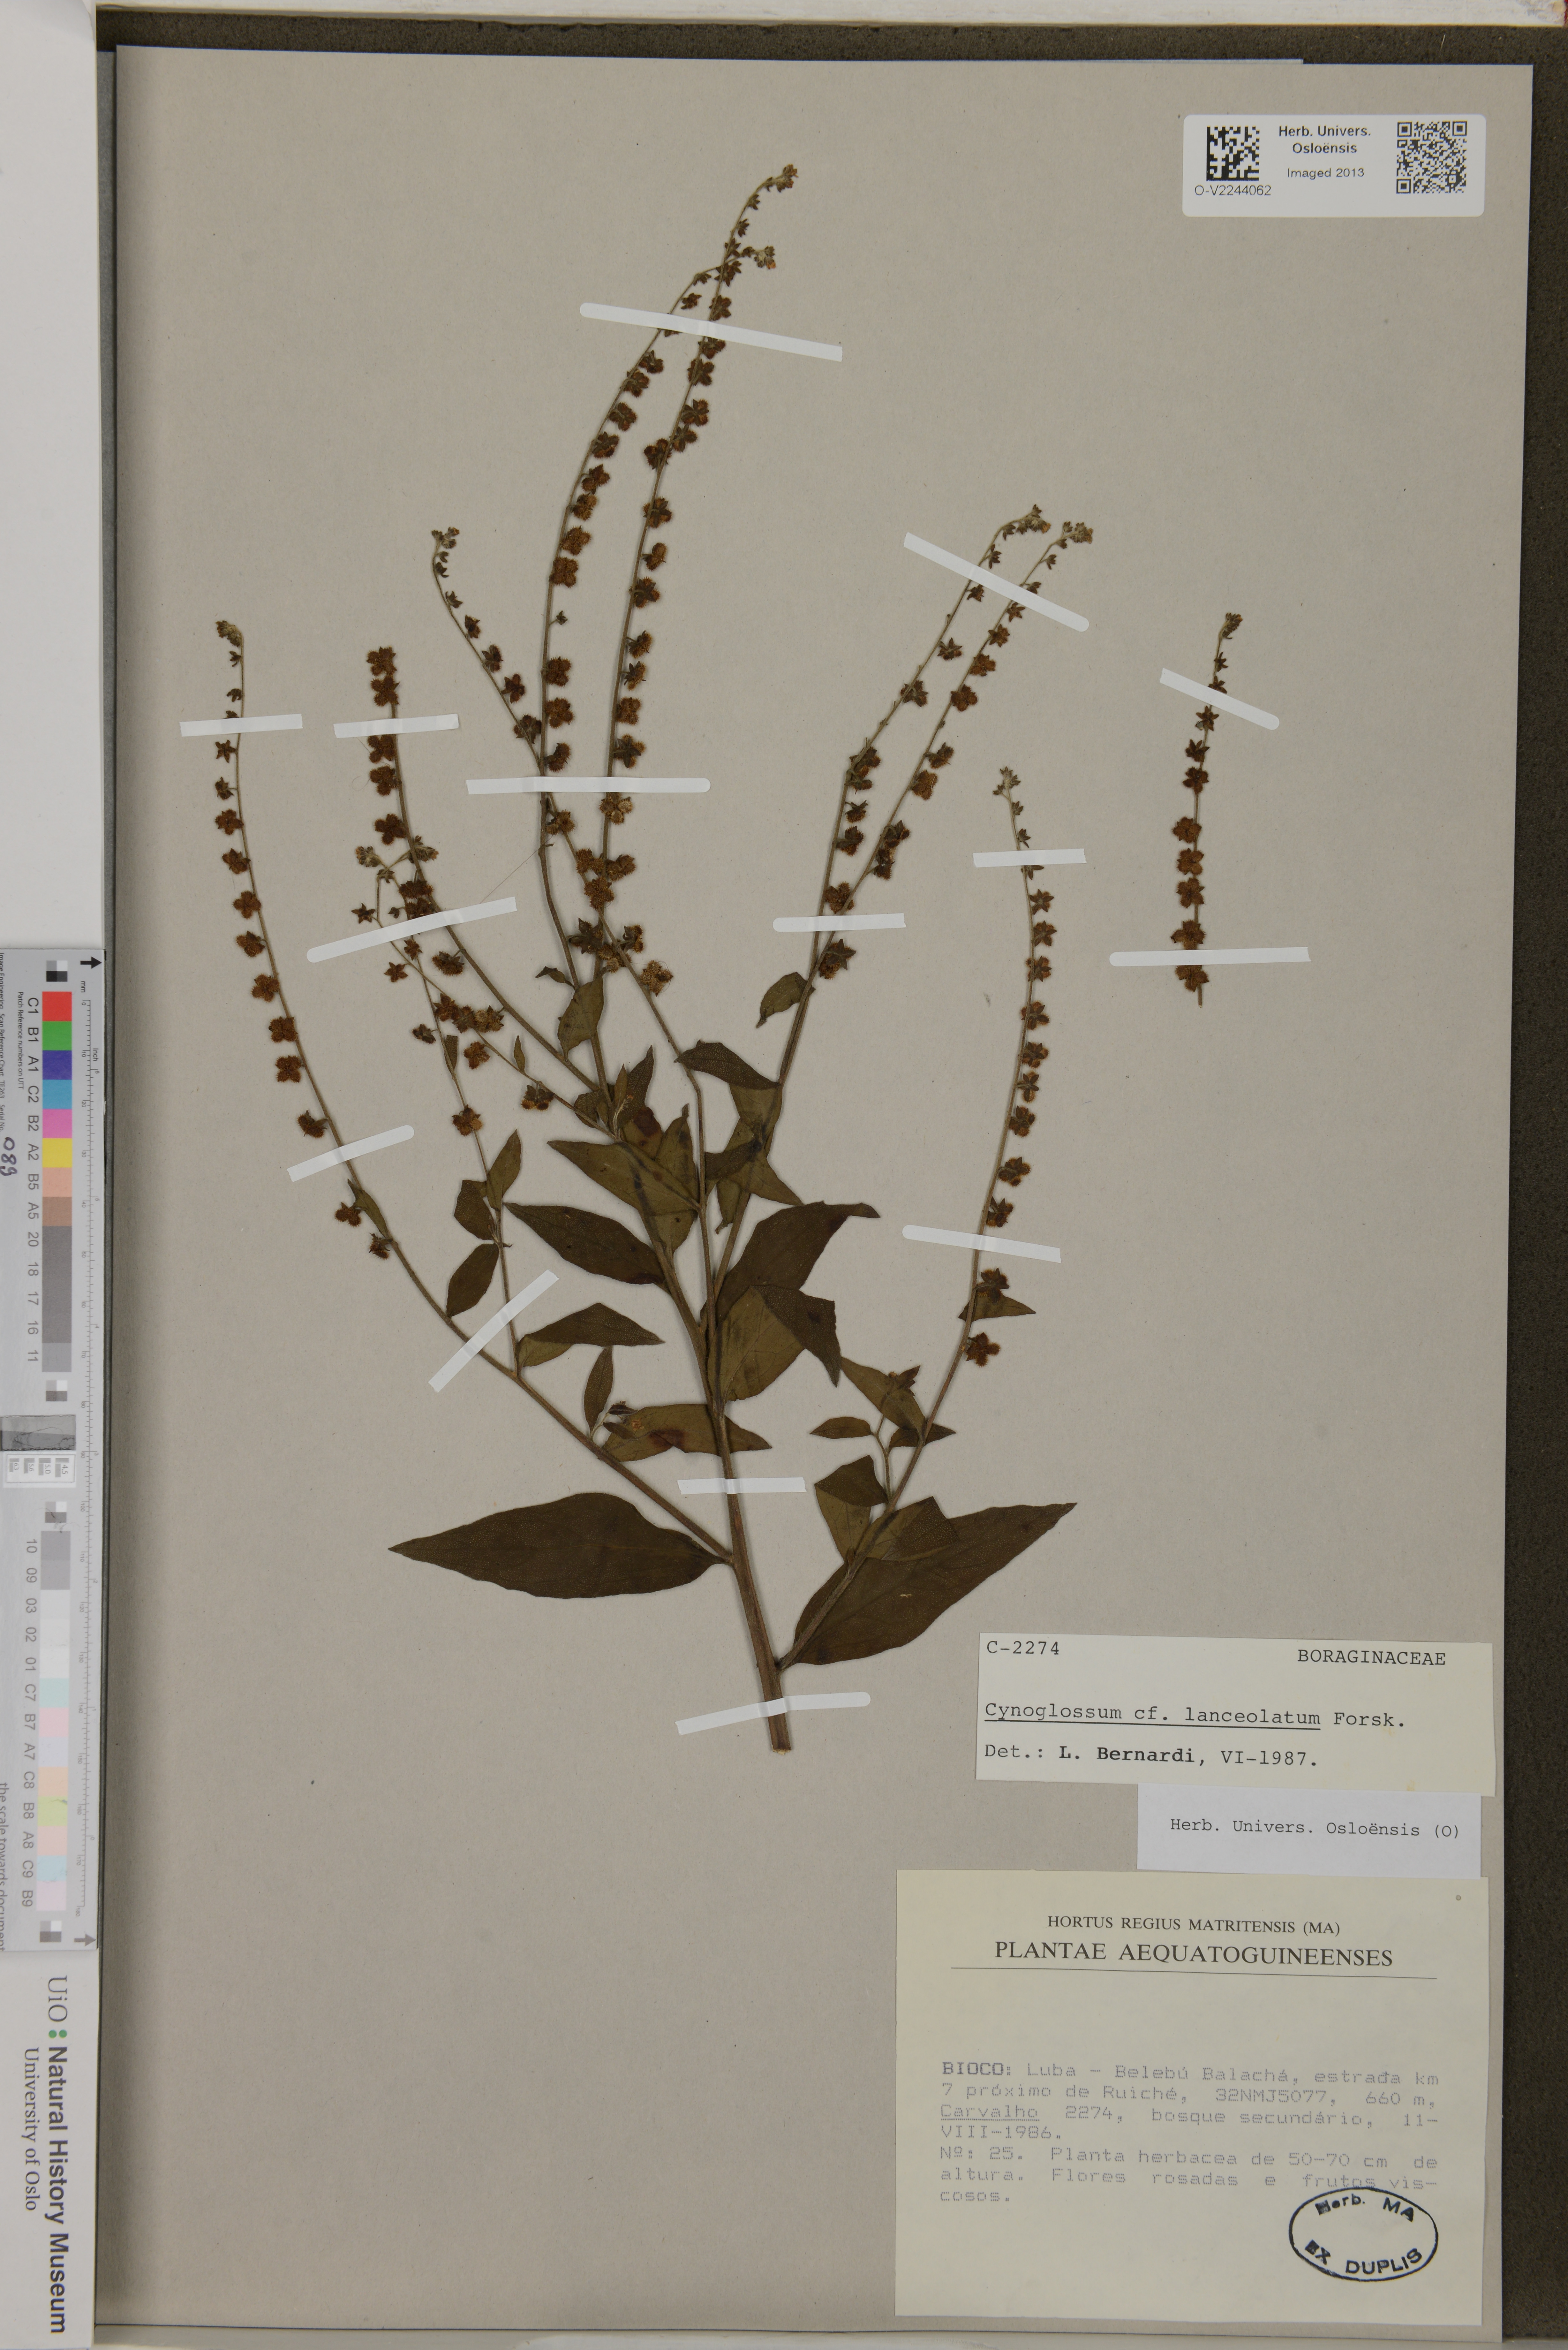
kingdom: Plantae
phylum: Tracheophyta
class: Magnoliopsida
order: Boraginales
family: Boraginaceae
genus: Cynoglossum
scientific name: Cynoglossum lanceolatum
